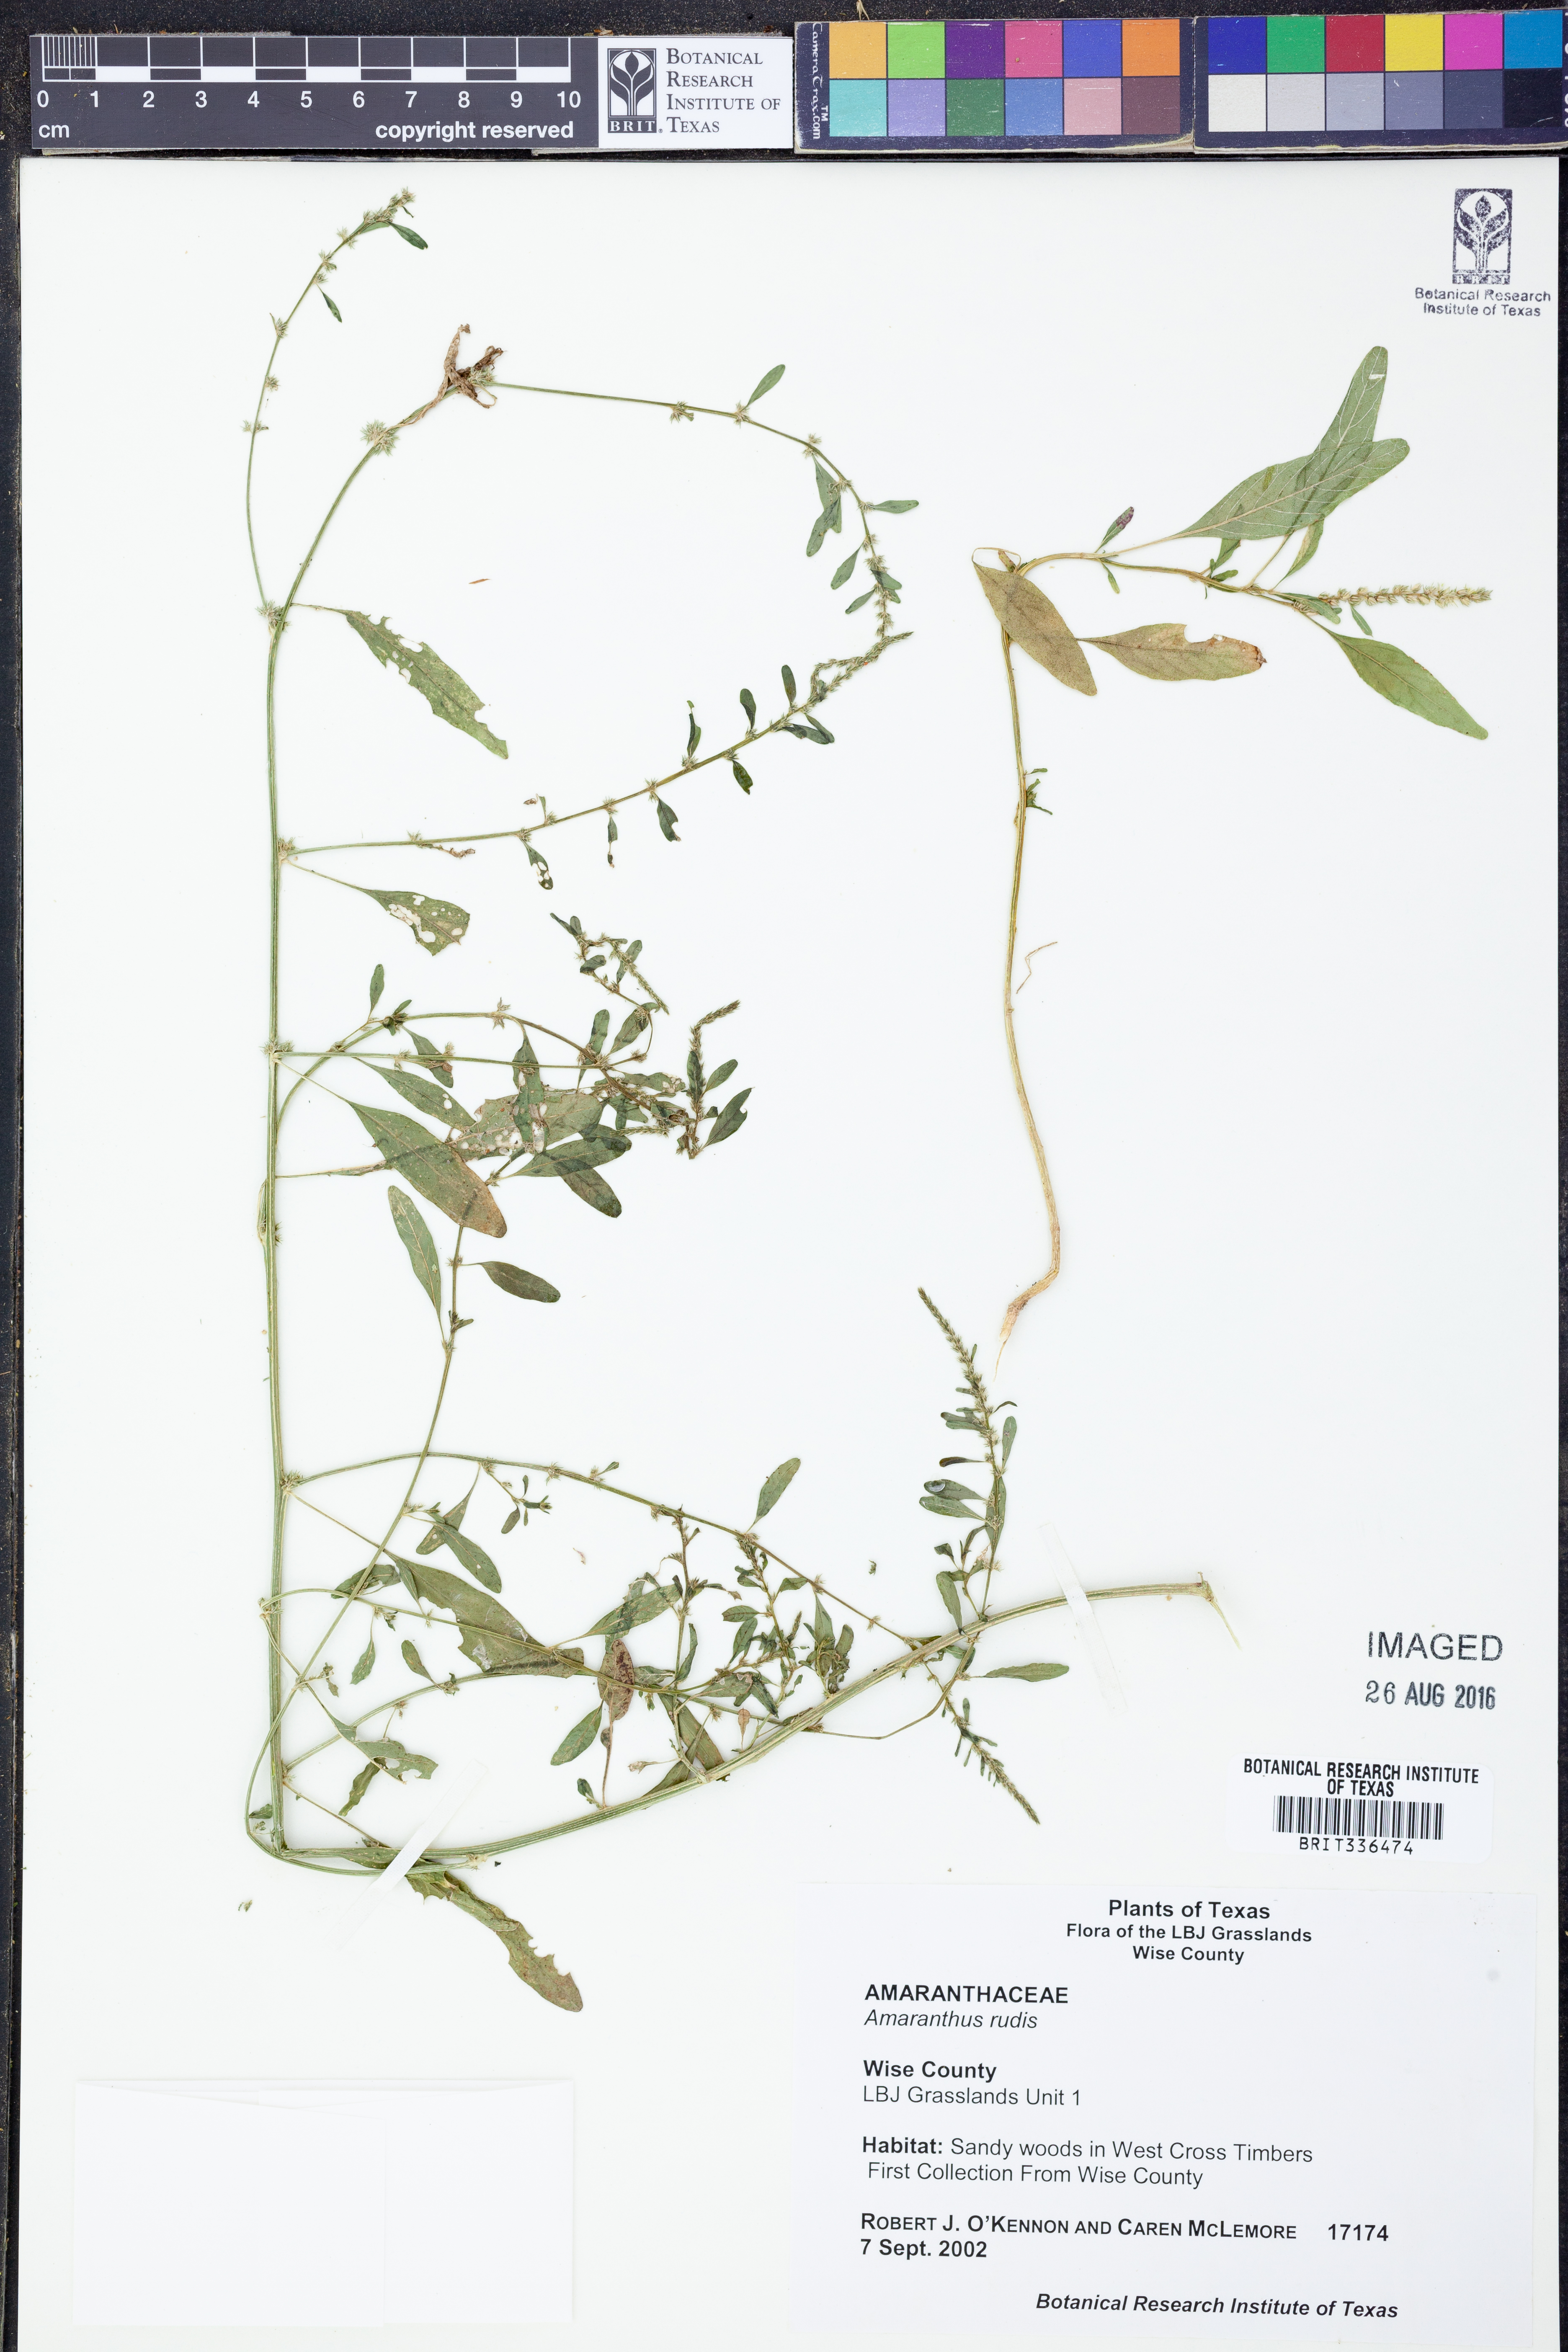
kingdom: Plantae
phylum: Tracheophyta
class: Magnoliopsida
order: Caryophyllales
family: Amaranthaceae
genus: Amaranthus
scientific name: Amaranthus tuberculatus
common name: Rough-fruit amaranth
